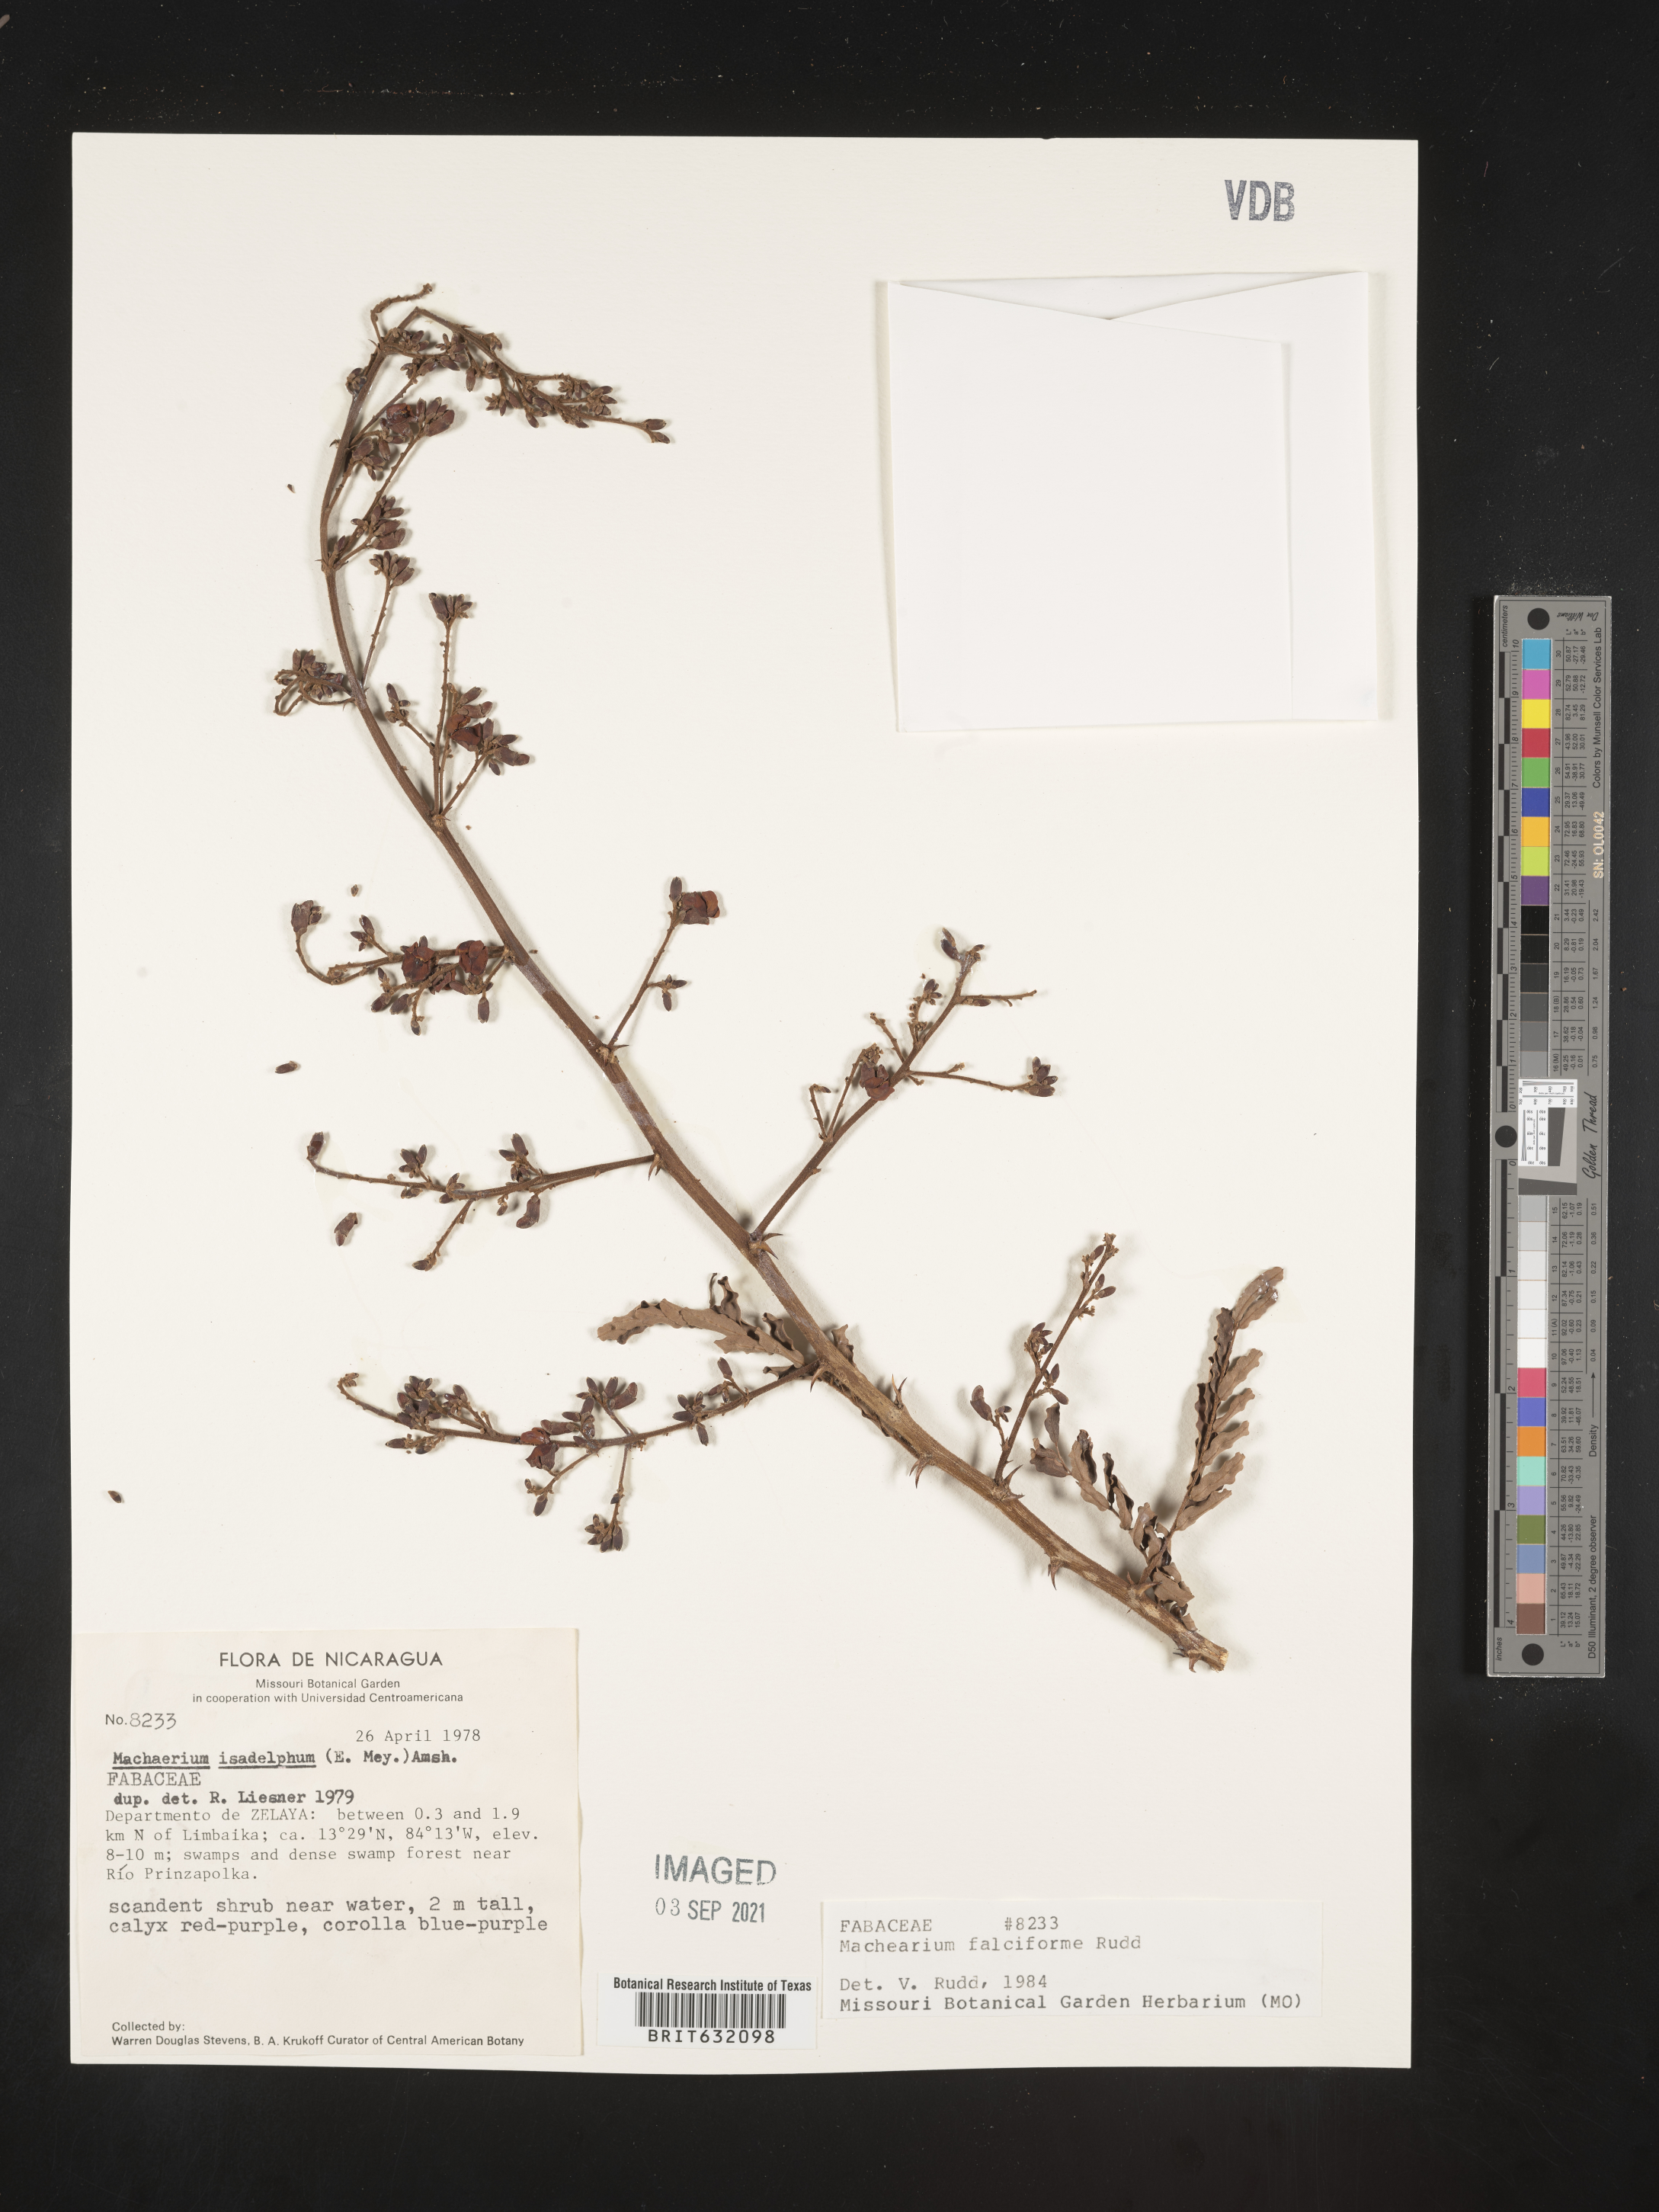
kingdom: Plantae
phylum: Tracheophyta
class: Magnoliopsida
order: Fabales
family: Fabaceae
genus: Machaerium
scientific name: Machaerium
